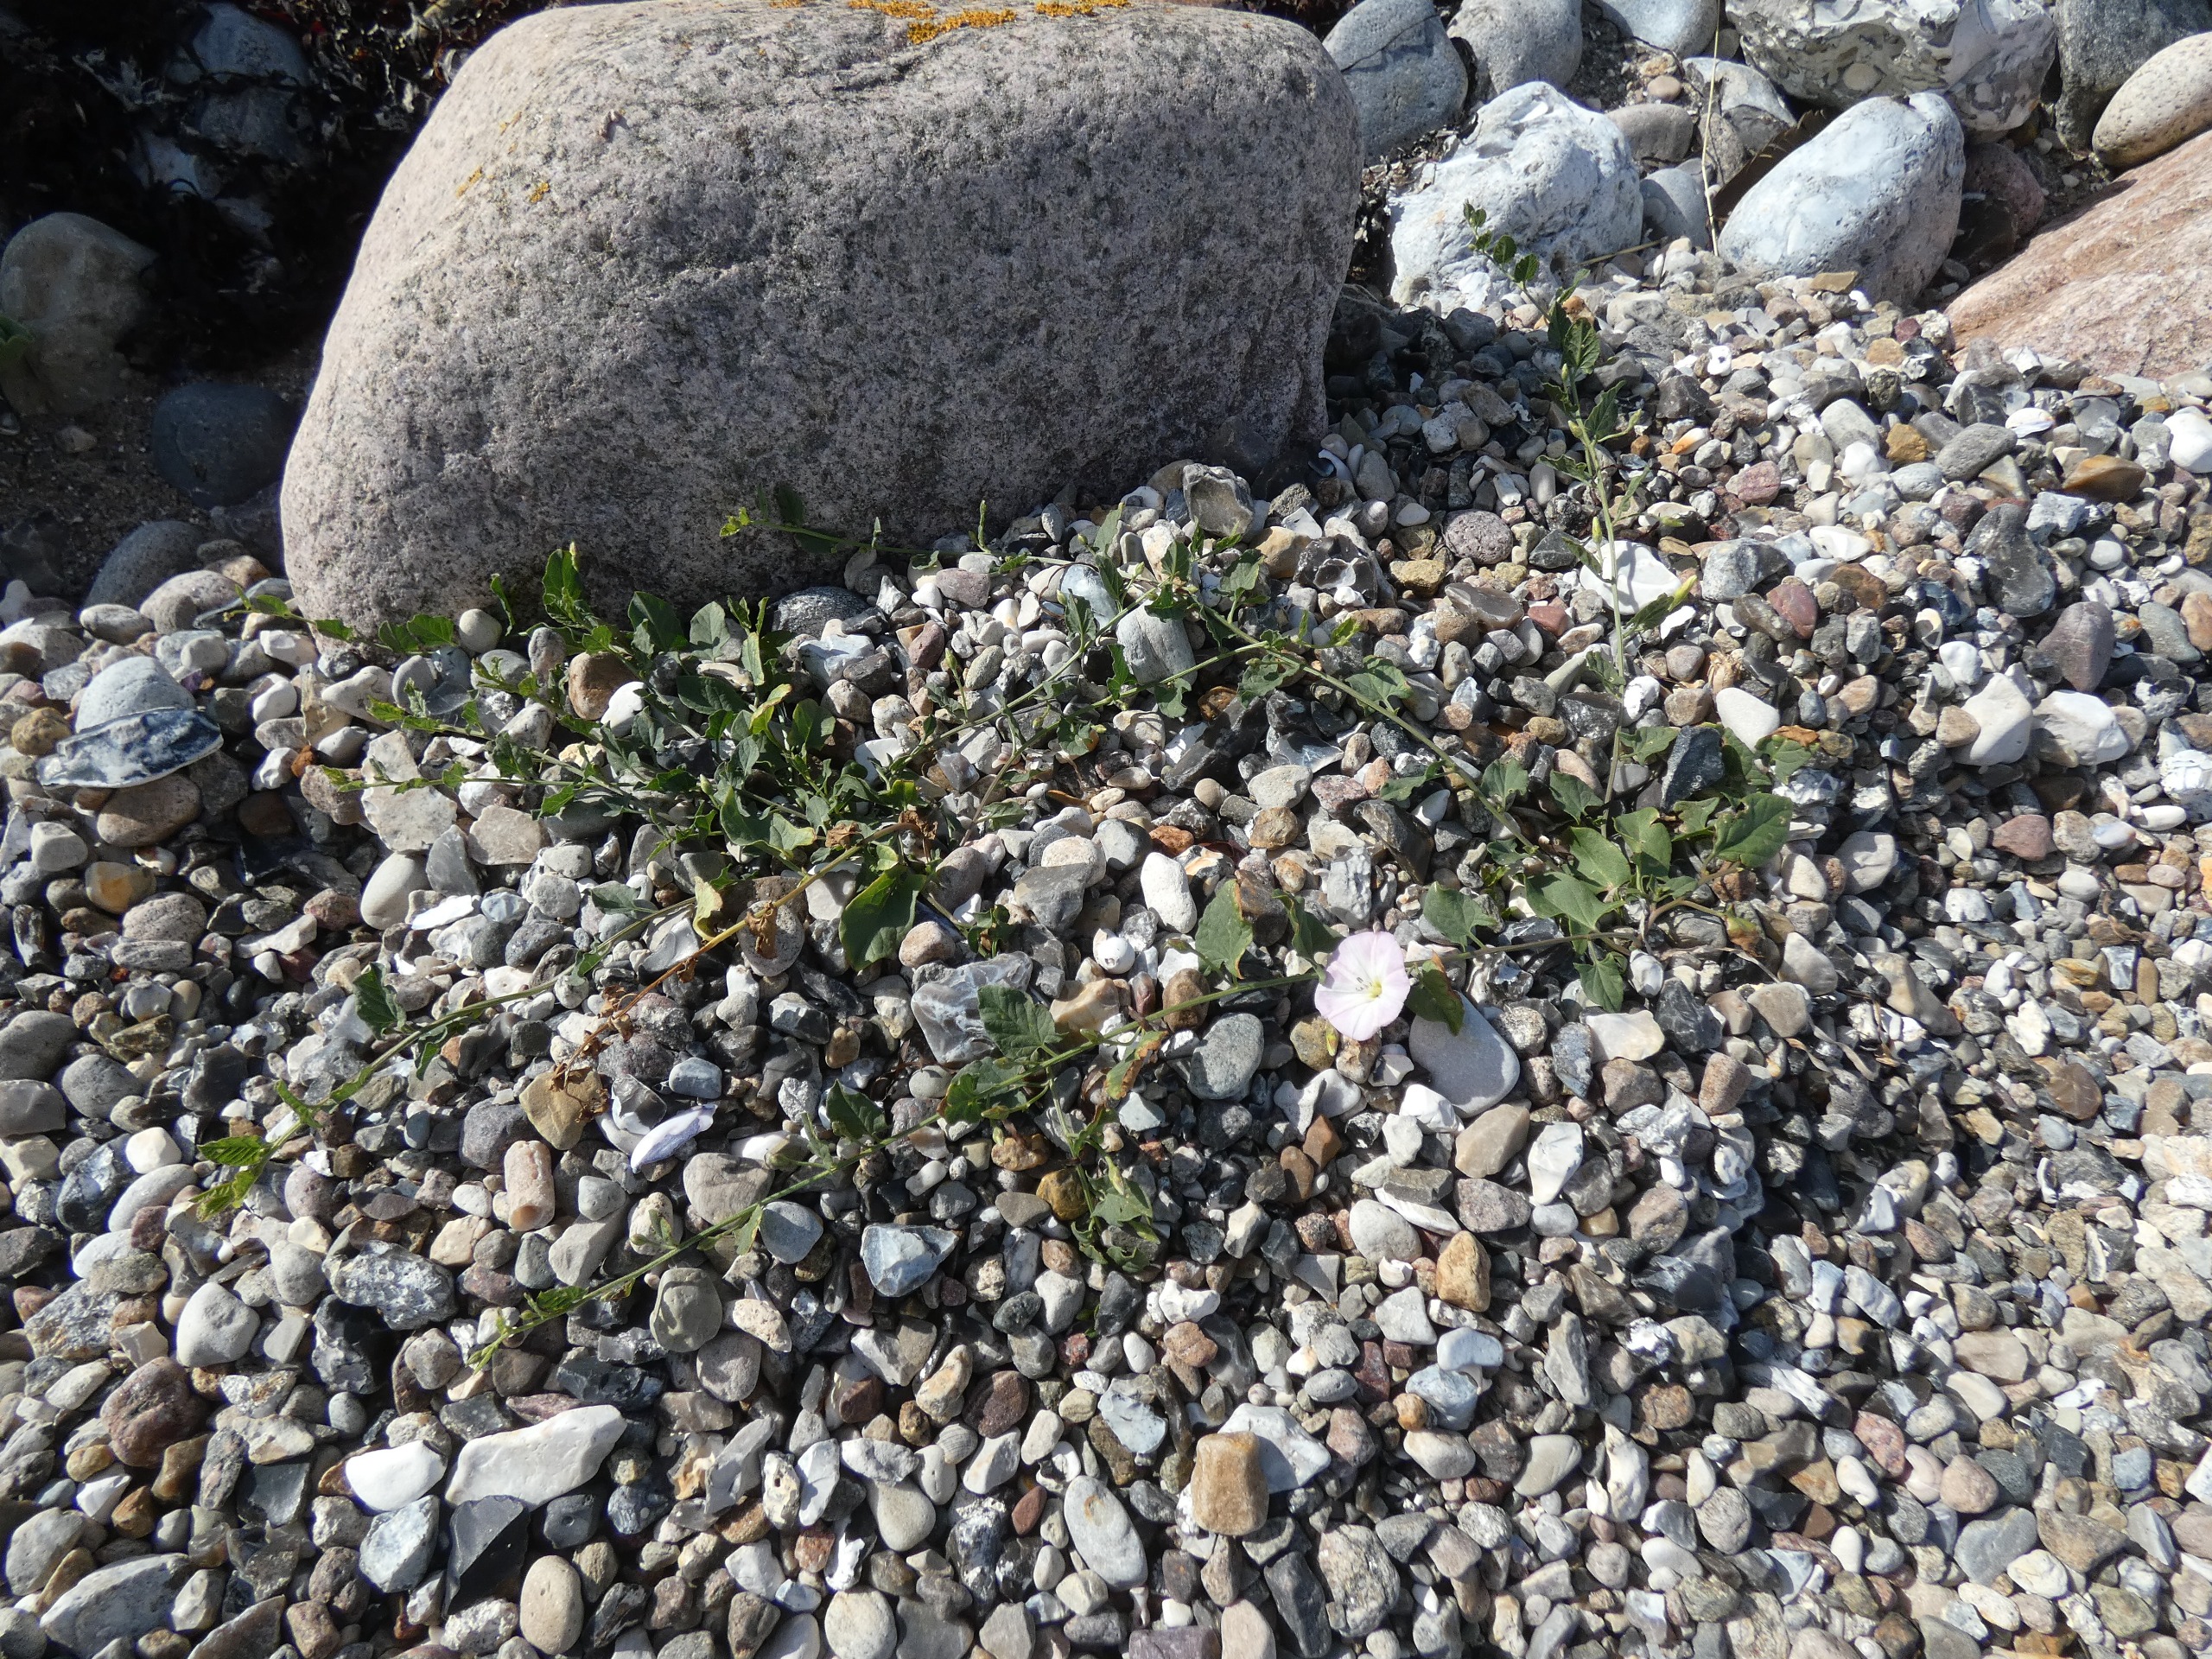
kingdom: Plantae
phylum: Tracheophyta
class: Magnoliopsida
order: Solanales
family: Convolvulaceae
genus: Convolvulus
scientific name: Convolvulus arvensis
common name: Ager-snerle
